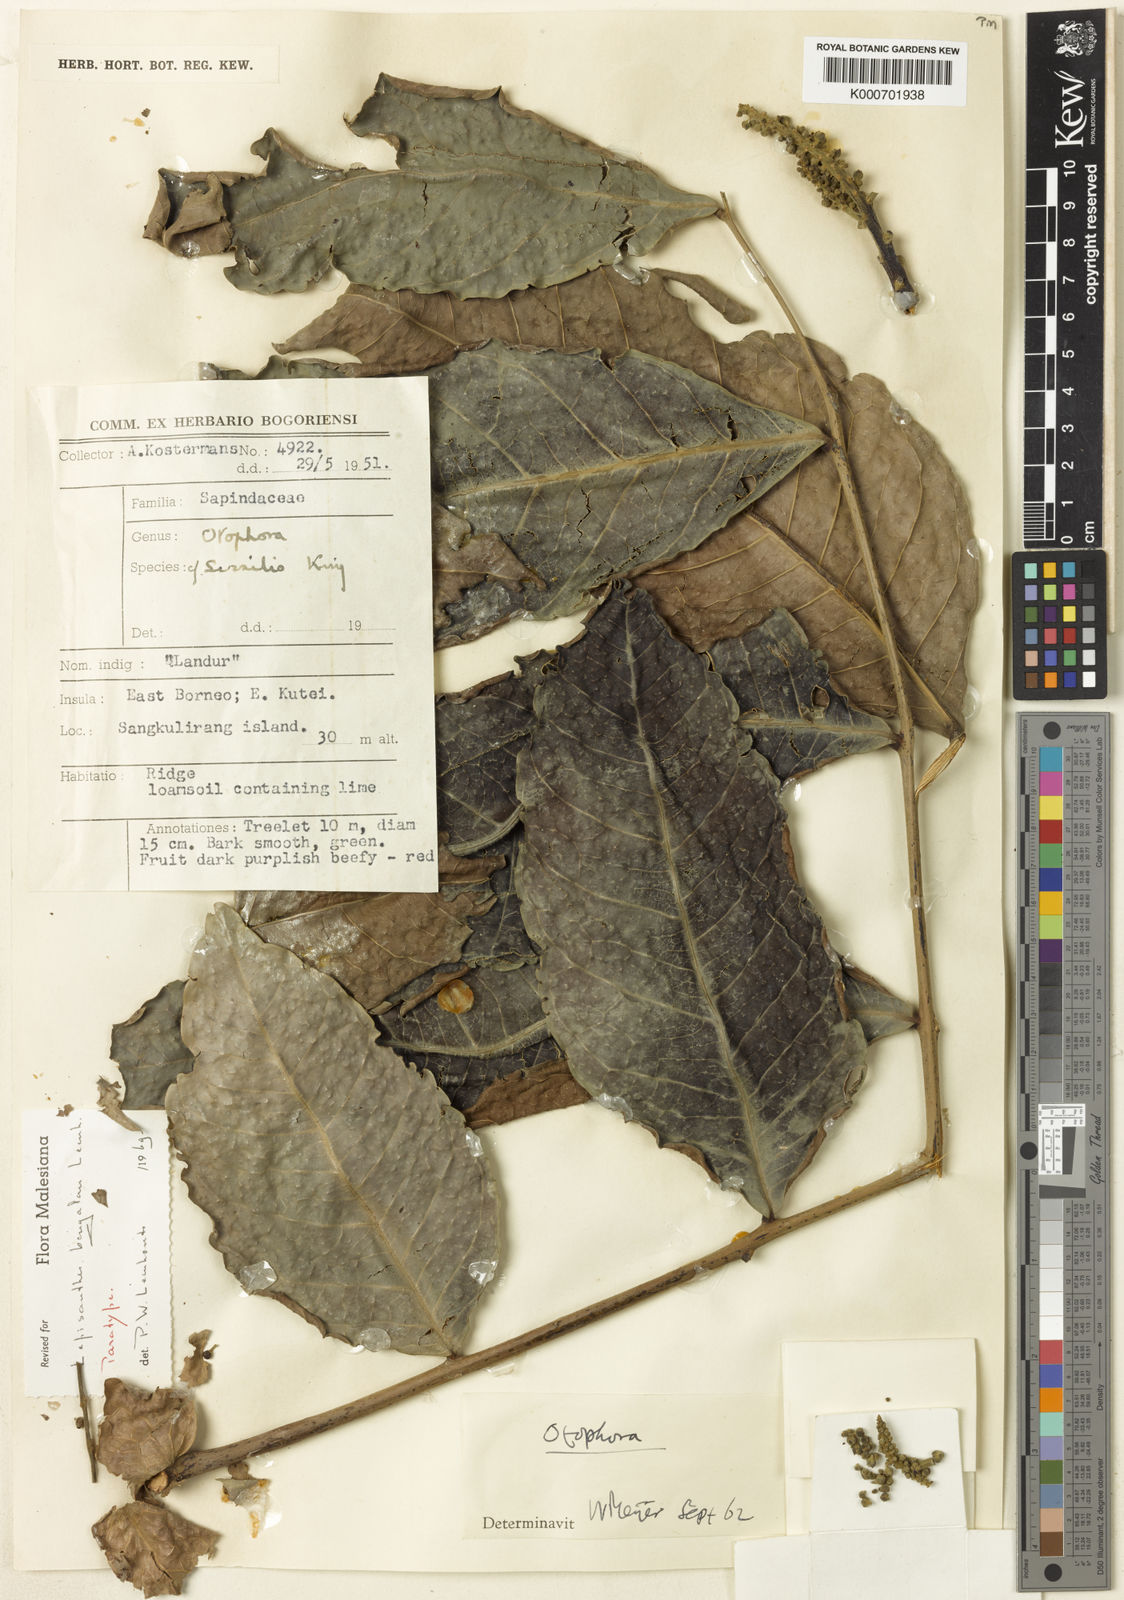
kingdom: Plantae
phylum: Tracheophyta
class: Magnoliopsida
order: Sapindales
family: Sapindaceae
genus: Lepisanthes
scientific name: Lepisanthes bengalan
